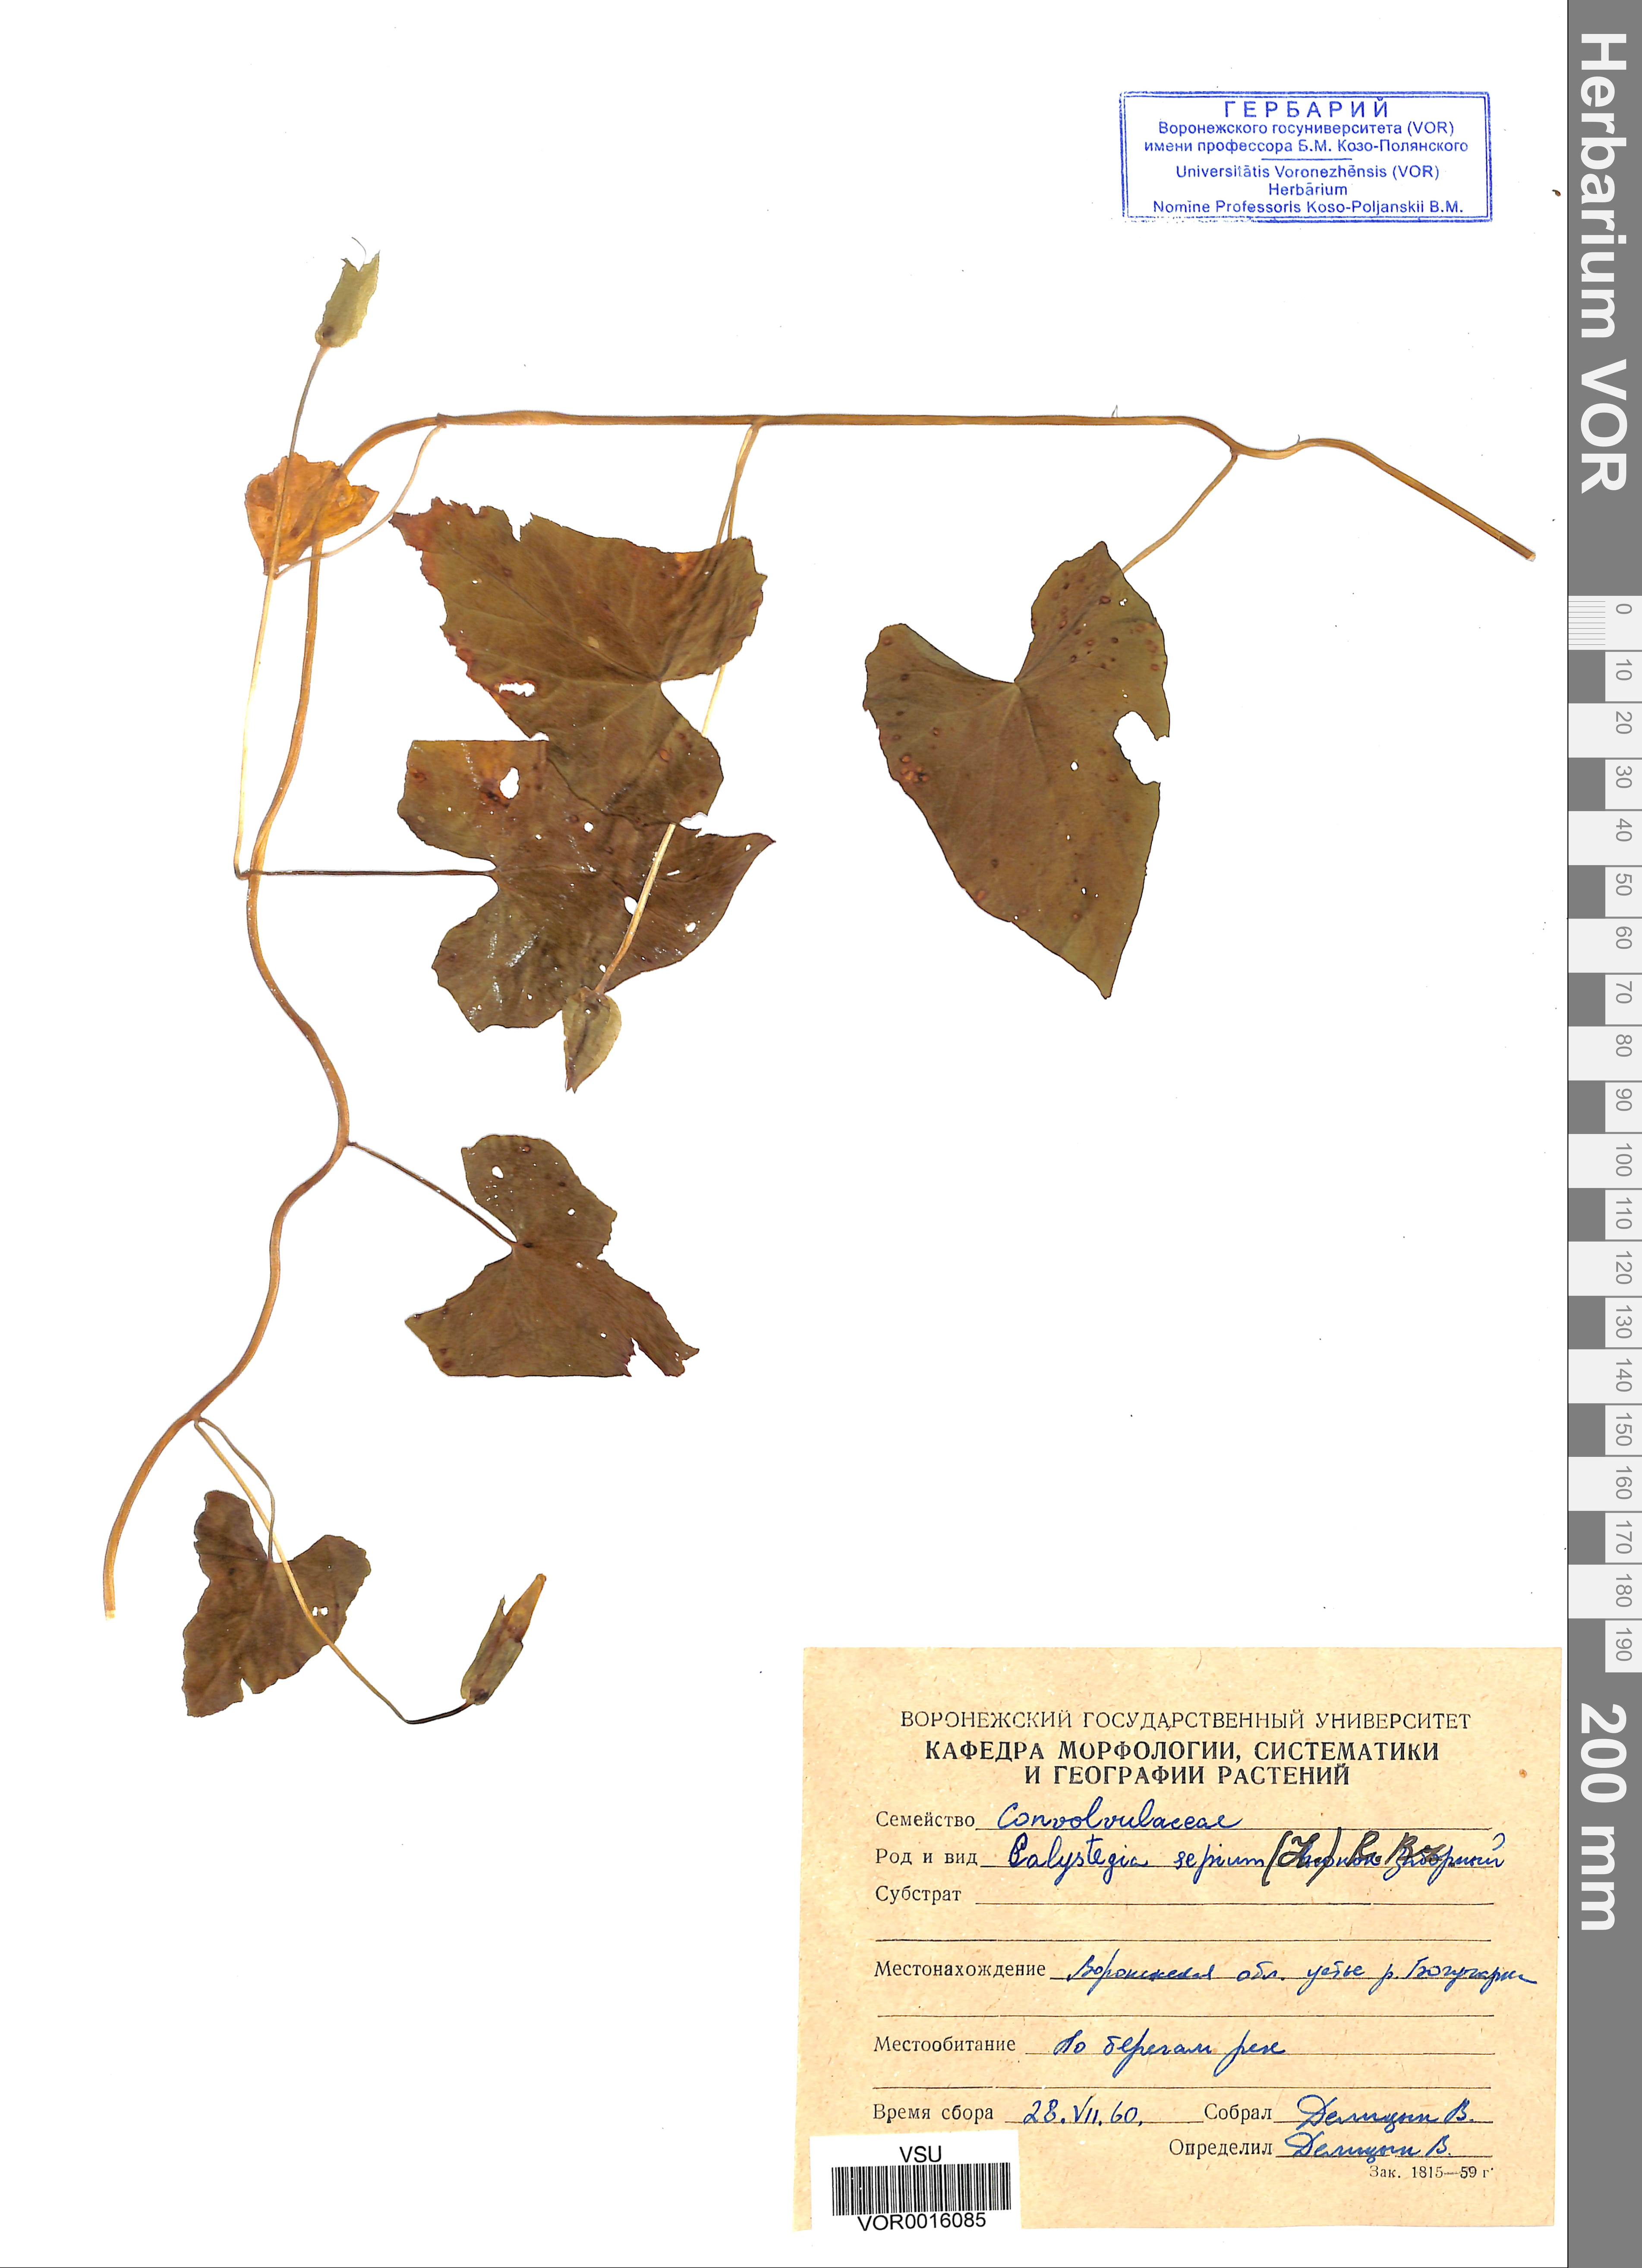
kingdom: Plantae
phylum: Tracheophyta
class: Magnoliopsida
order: Solanales
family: Convolvulaceae
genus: Calystegia
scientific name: Calystegia sepium
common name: Hedge bindweed
